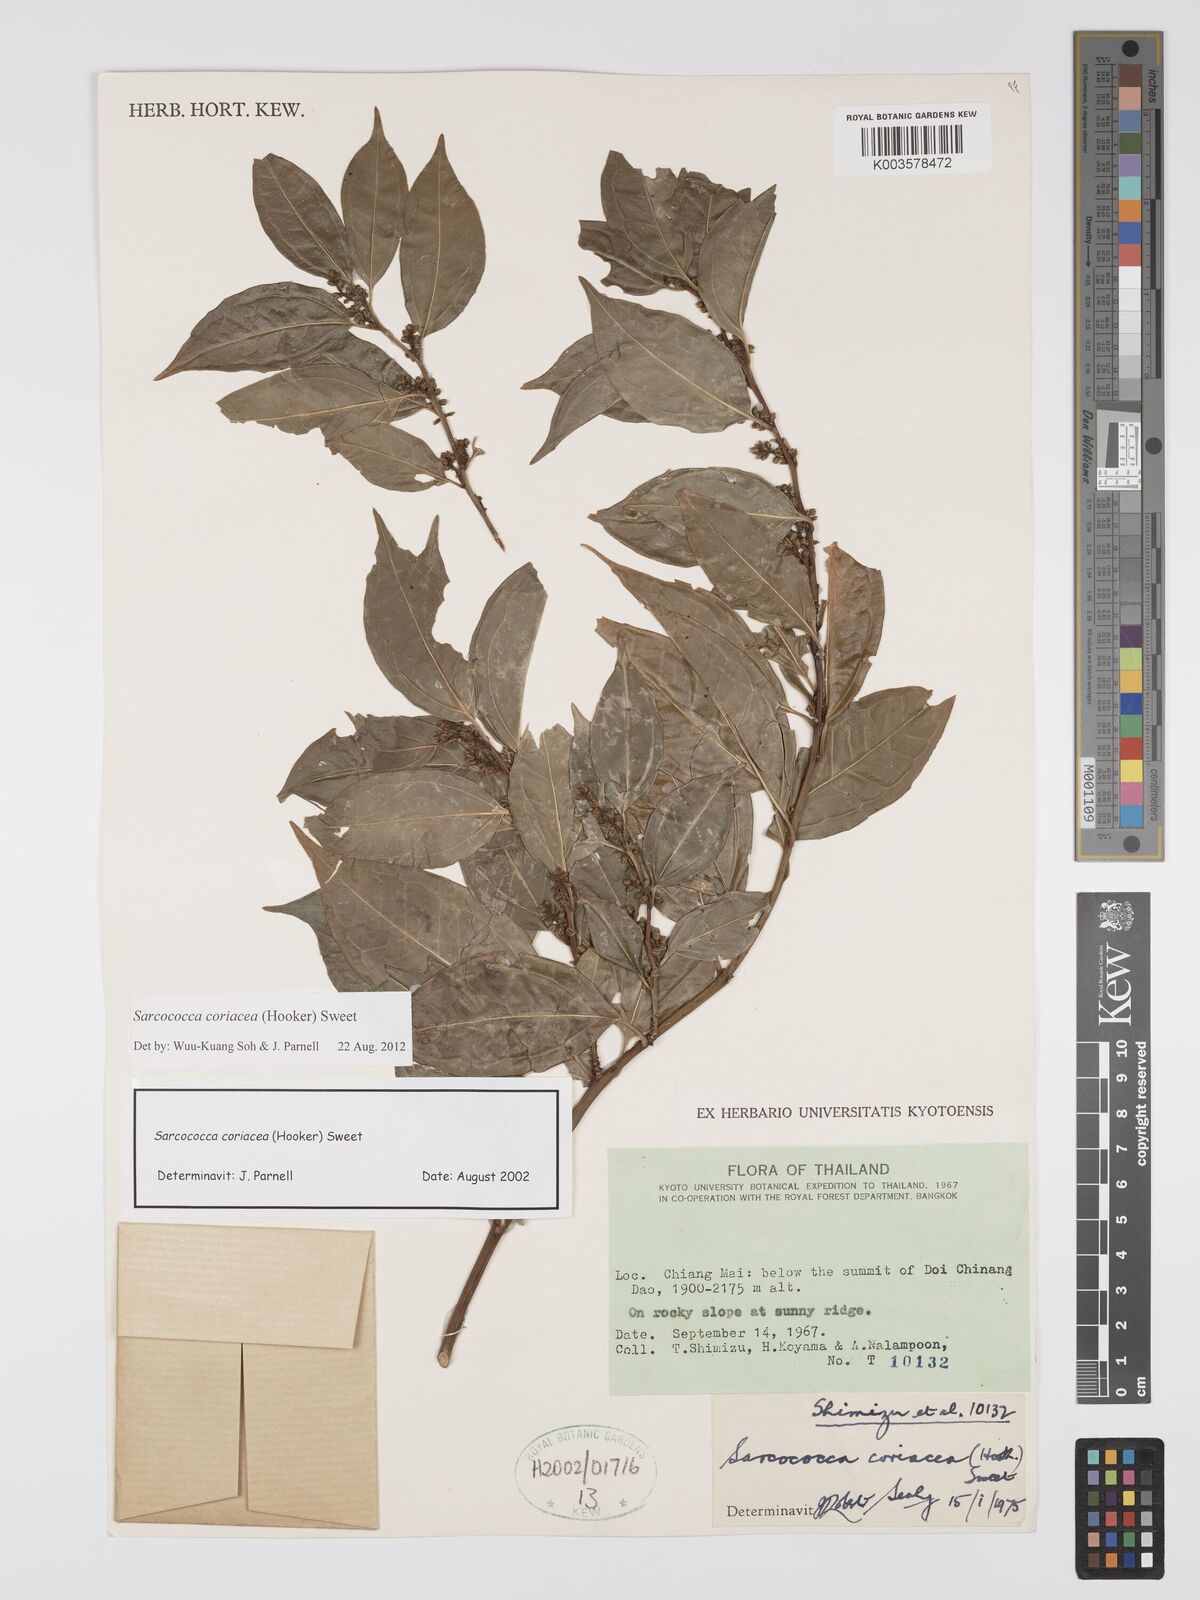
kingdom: Plantae
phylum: Tracheophyta
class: Magnoliopsida
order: Buxales
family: Buxaceae
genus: Sarcococca
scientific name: Sarcococca coriacea
